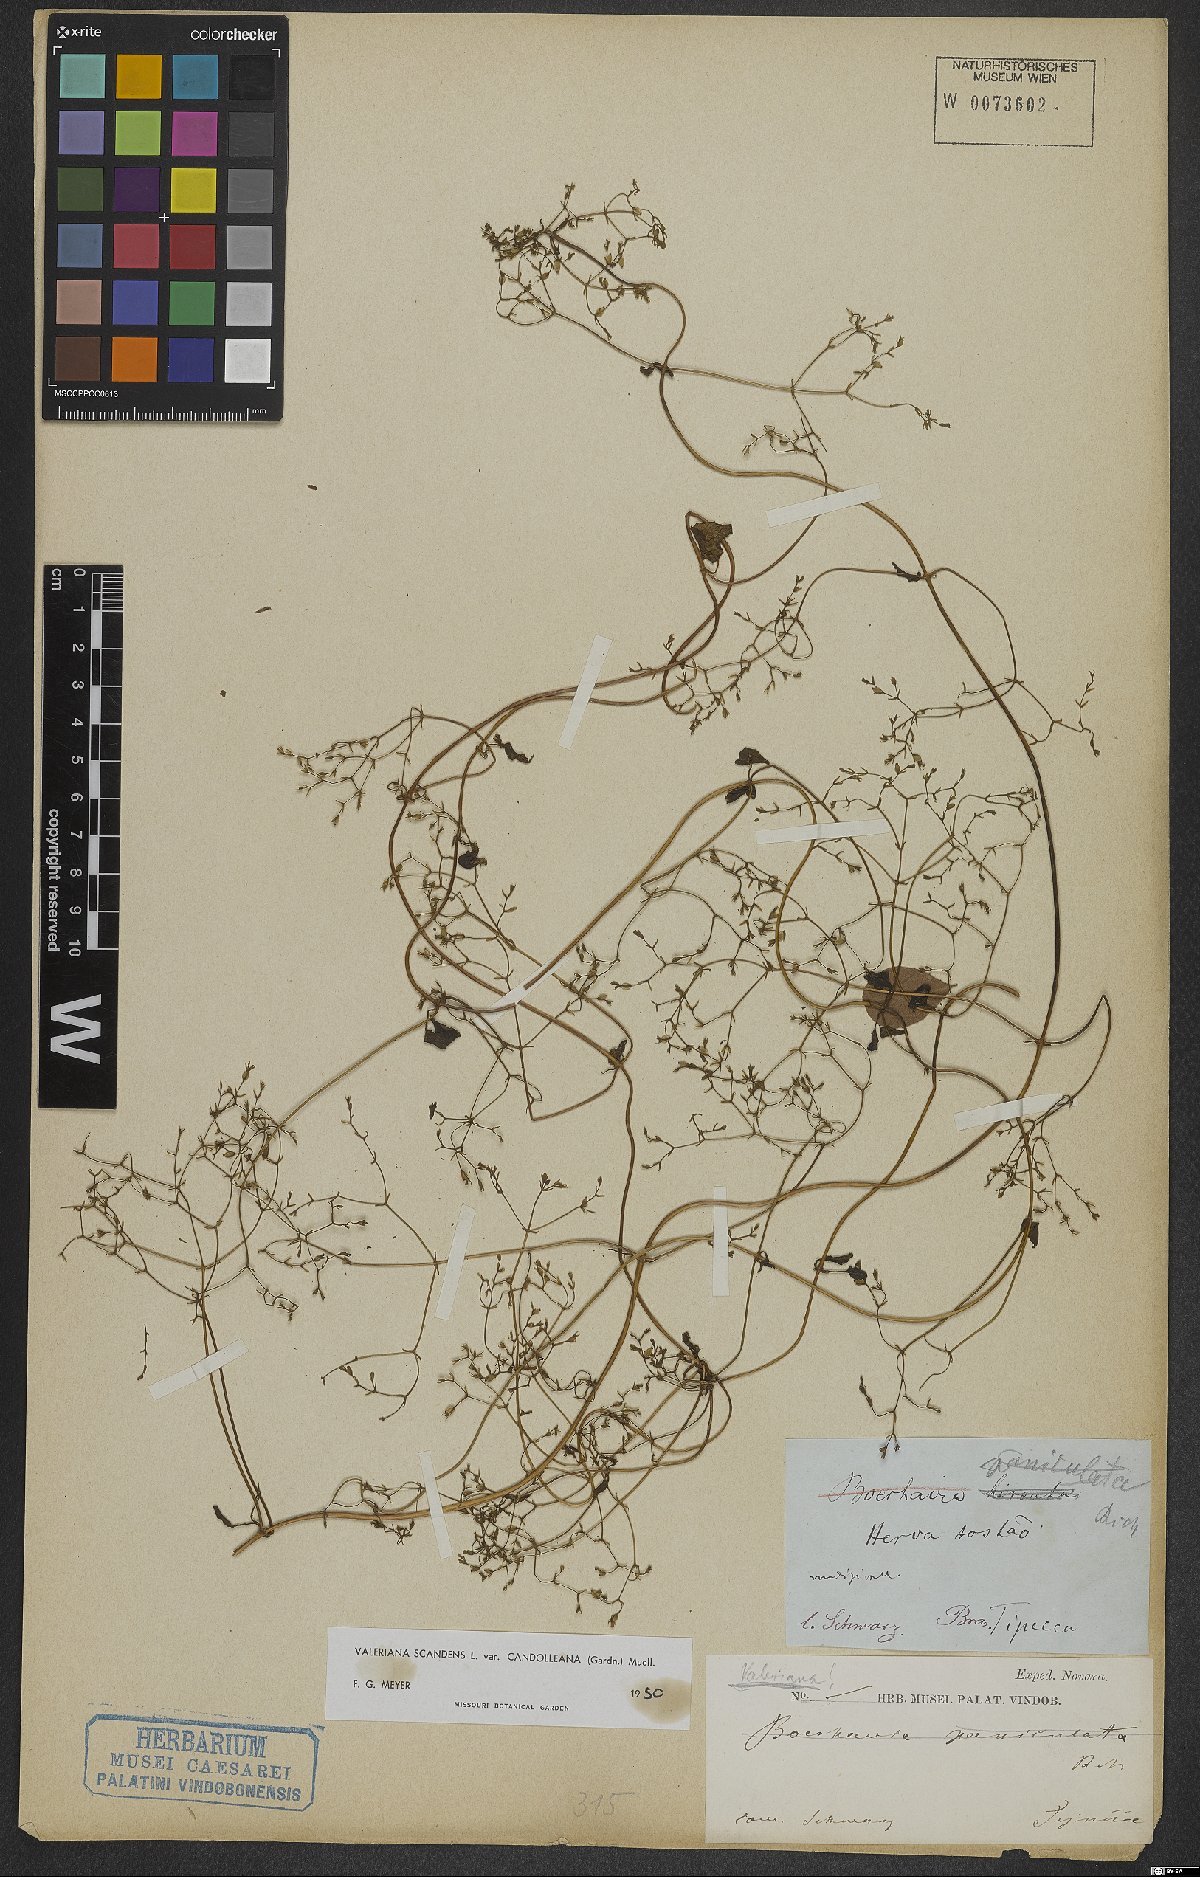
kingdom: Plantae
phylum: Tracheophyta
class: Magnoliopsida
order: Dipsacales
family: Caprifoliaceae
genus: Valeriana
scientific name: Valeriana candolleana
